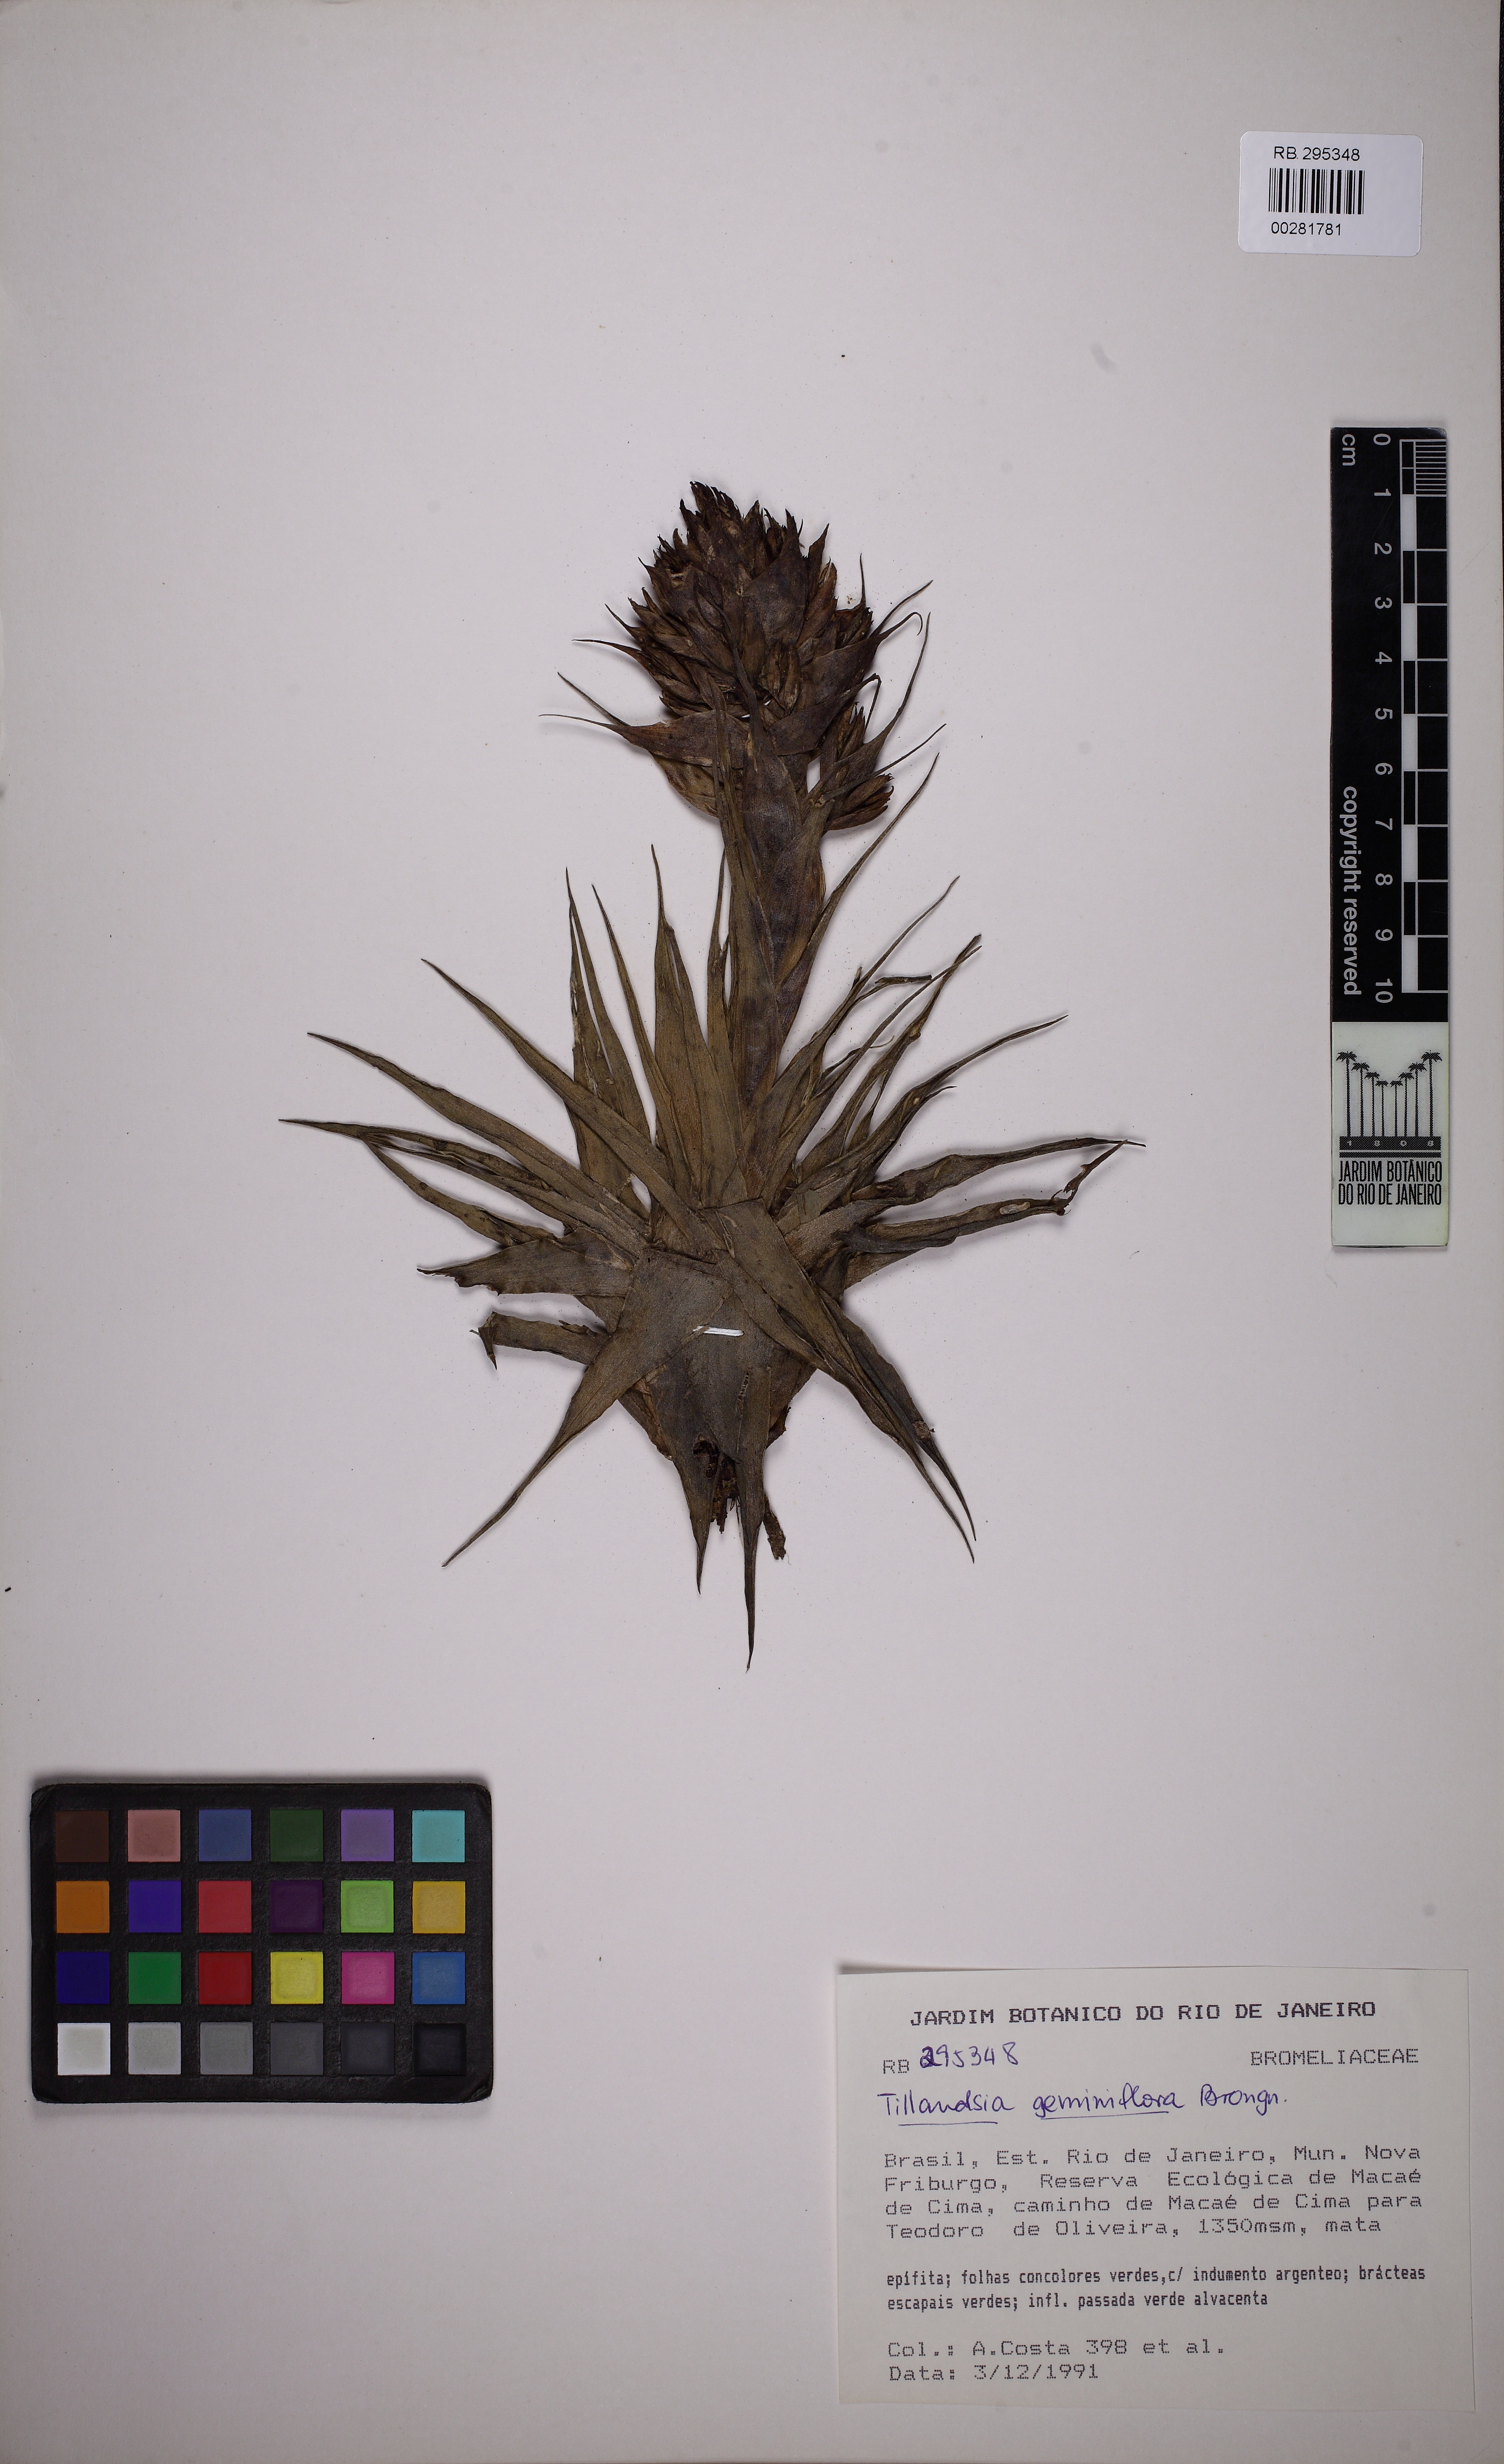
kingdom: Plantae
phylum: Tracheophyta
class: Liliopsida
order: Poales
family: Bromeliaceae
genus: Tillandsia
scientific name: Tillandsia geminiflora
